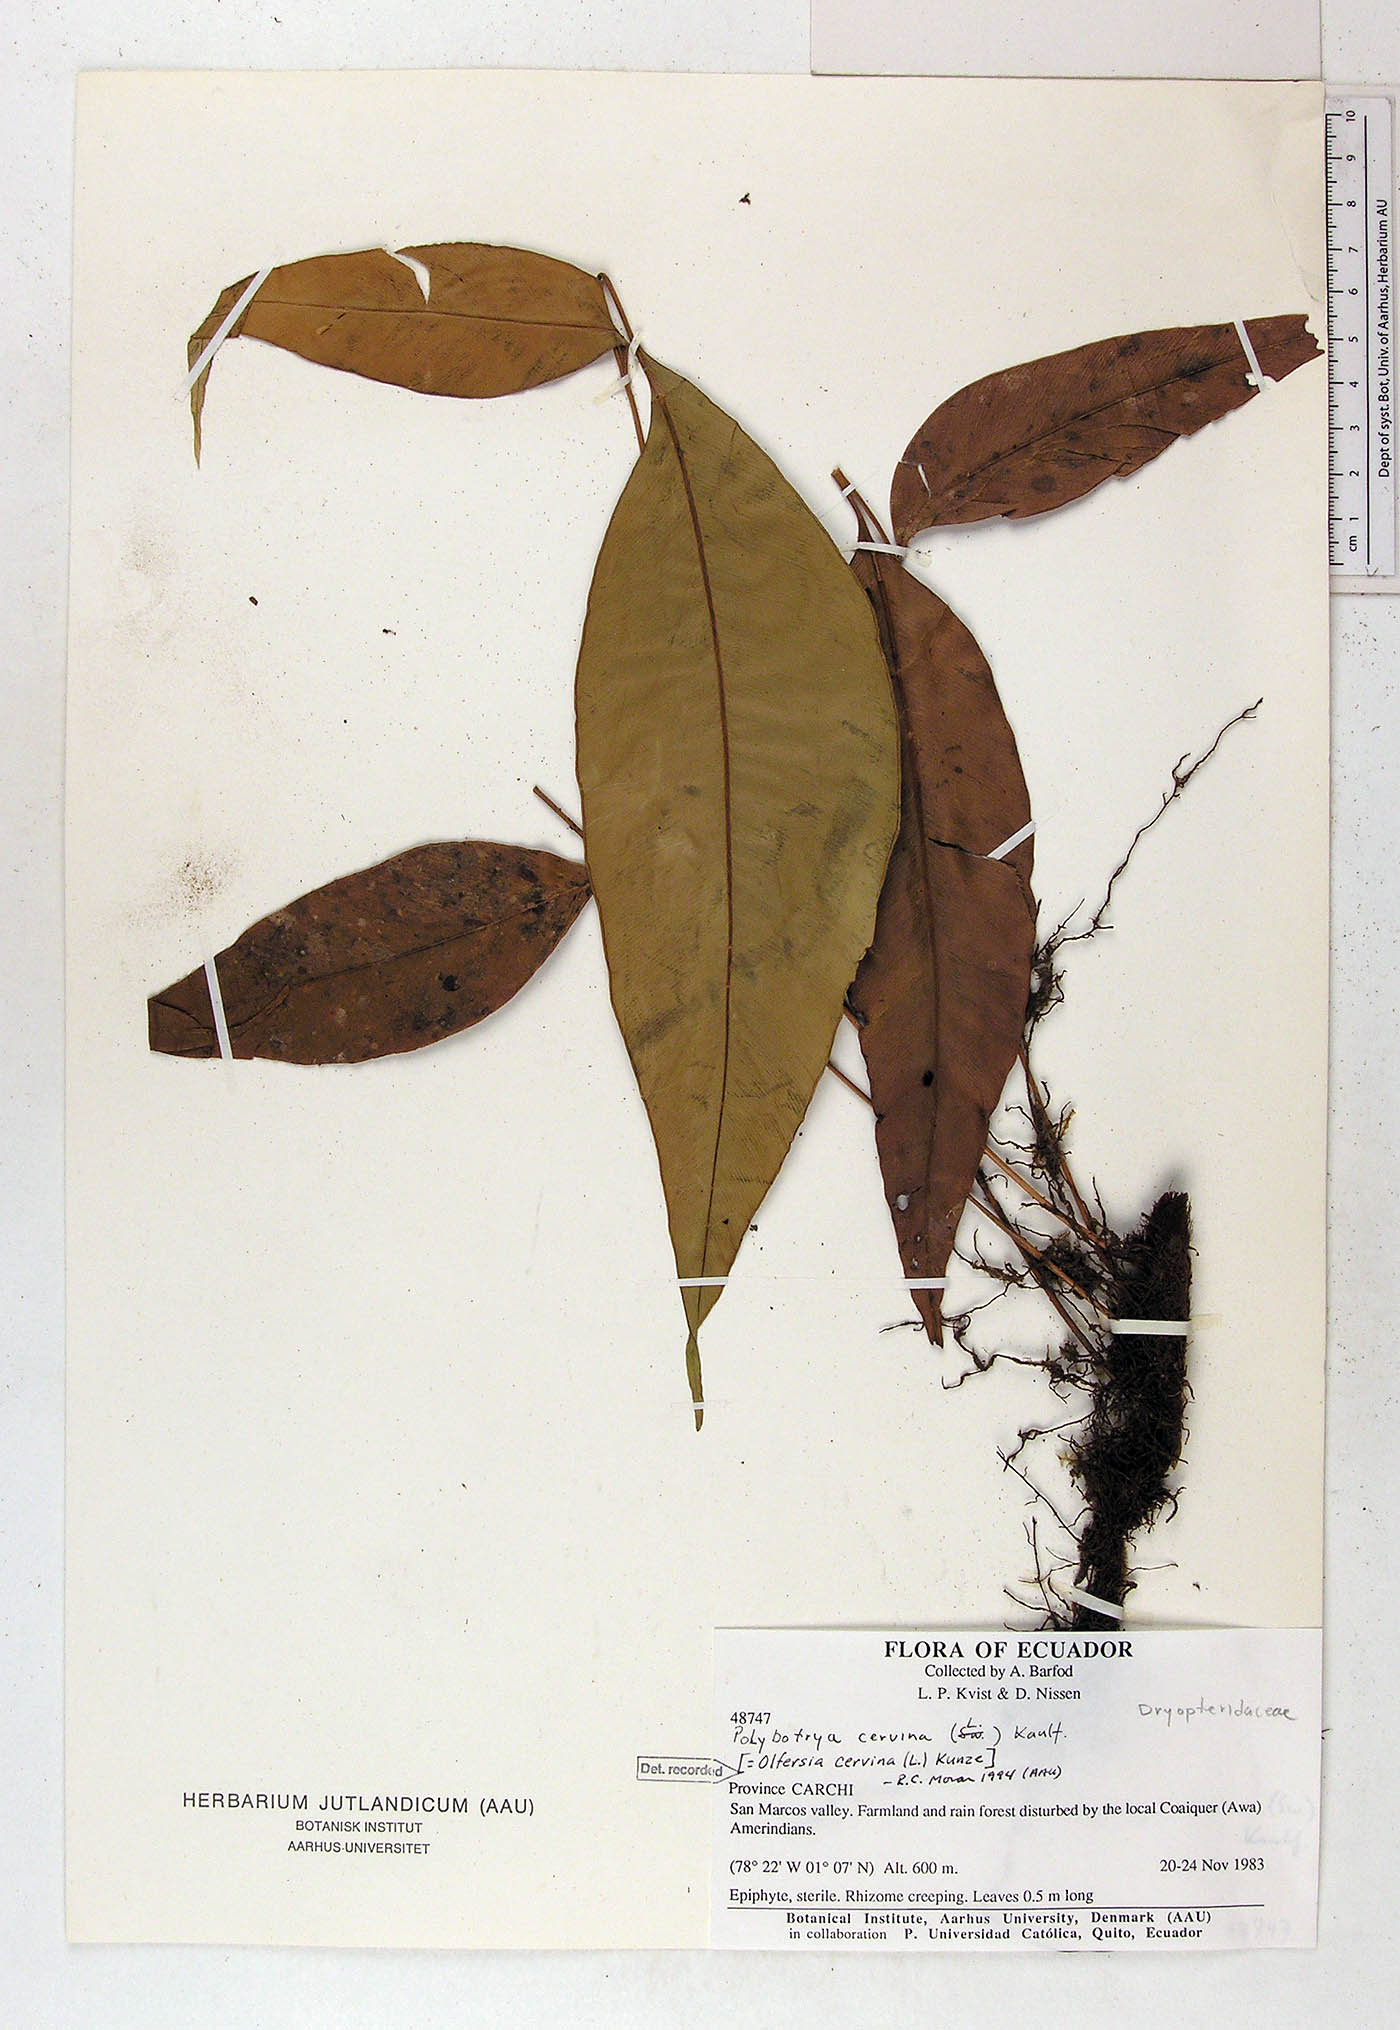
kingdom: Plantae
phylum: Tracheophyta
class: Polypodiopsida
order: Polypodiales
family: Dryopteridaceae
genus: Olfersia
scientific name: Olfersia cervina
